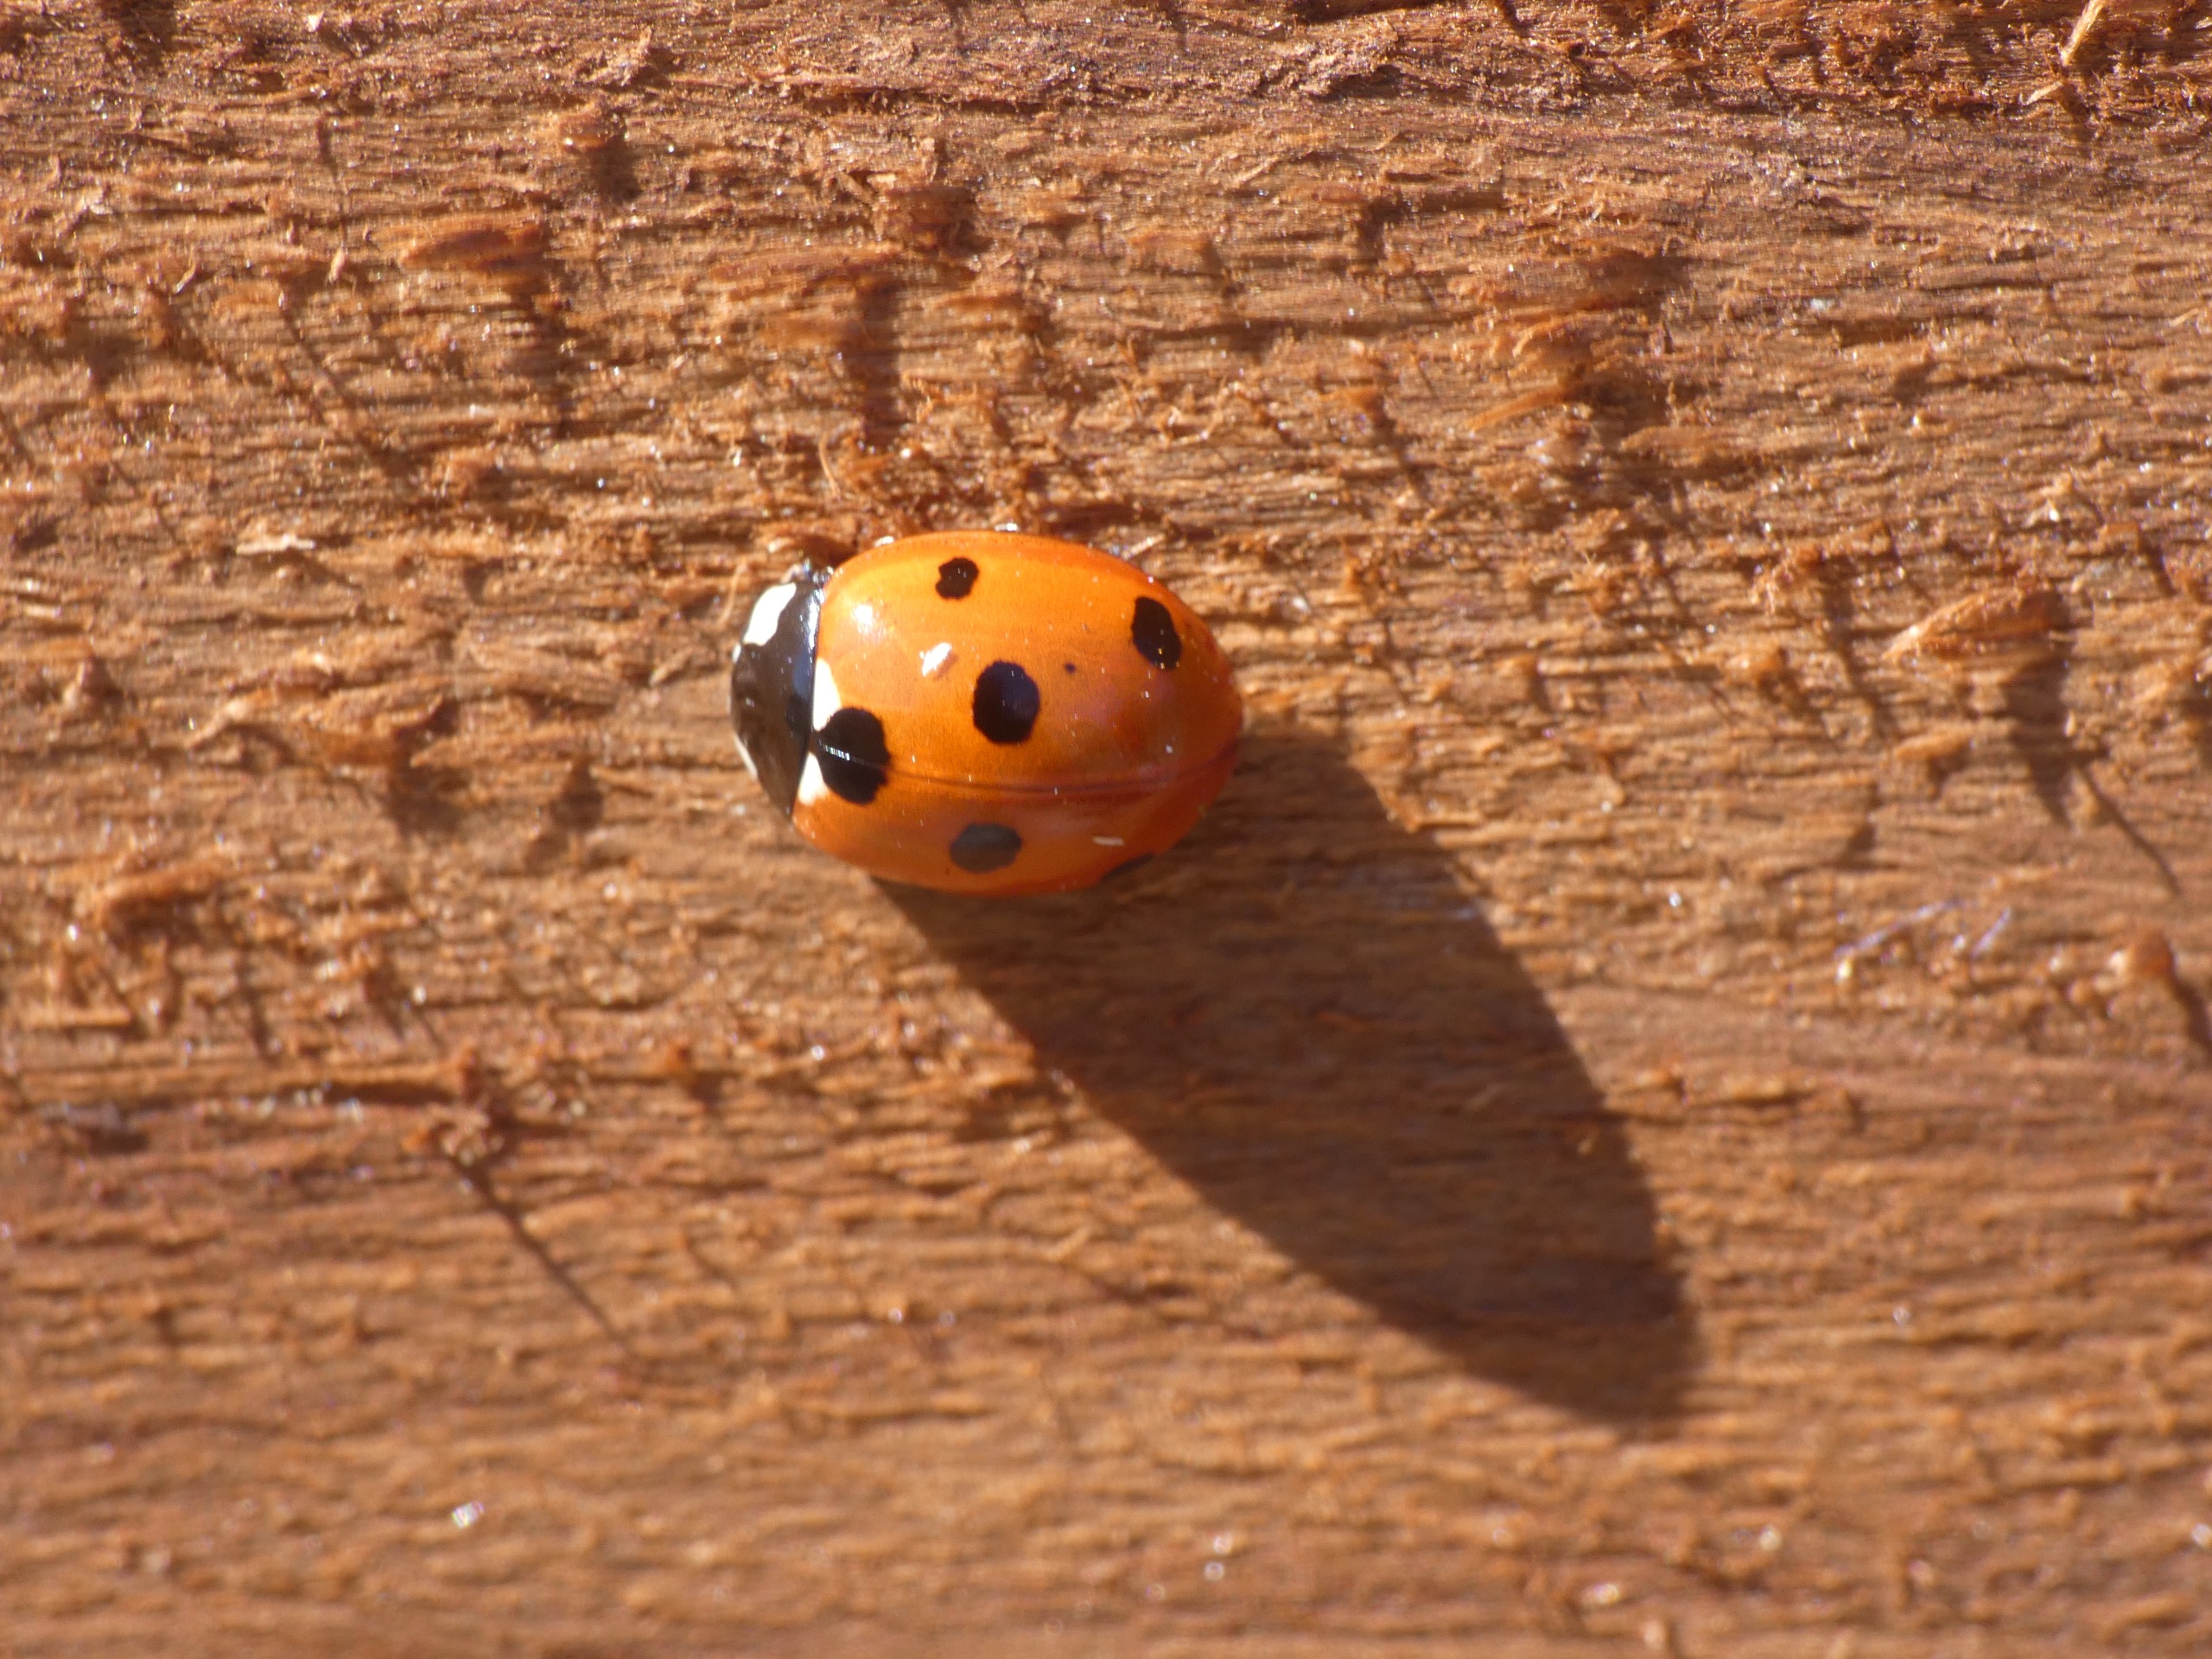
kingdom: Animalia
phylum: Arthropoda
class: Insecta
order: Coleoptera
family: Coccinellidae
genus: Coccinella
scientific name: Coccinella septempunctata
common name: Syvplettet mariehøne
